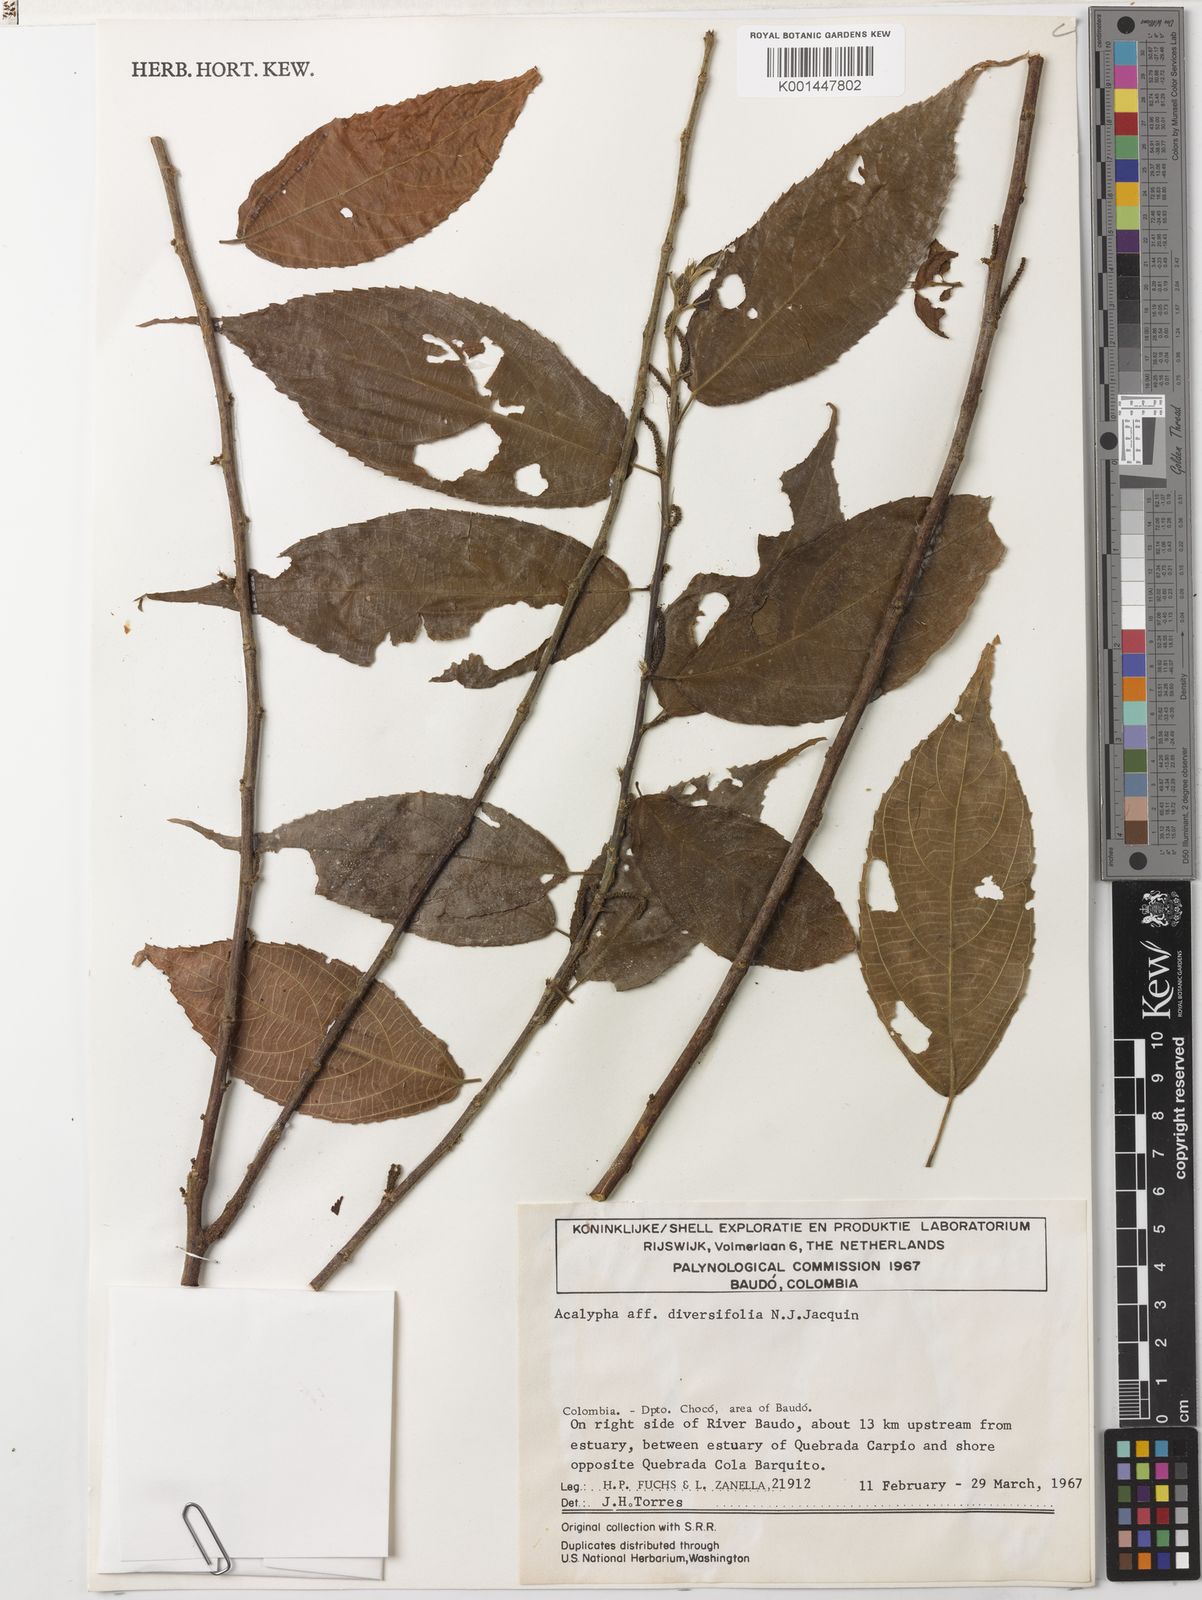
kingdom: Plantae
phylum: Tracheophyta
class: Magnoliopsida
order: Malpighiales
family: Euphorbiaceae
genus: Acalypha
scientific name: Acalypha diversifolia
